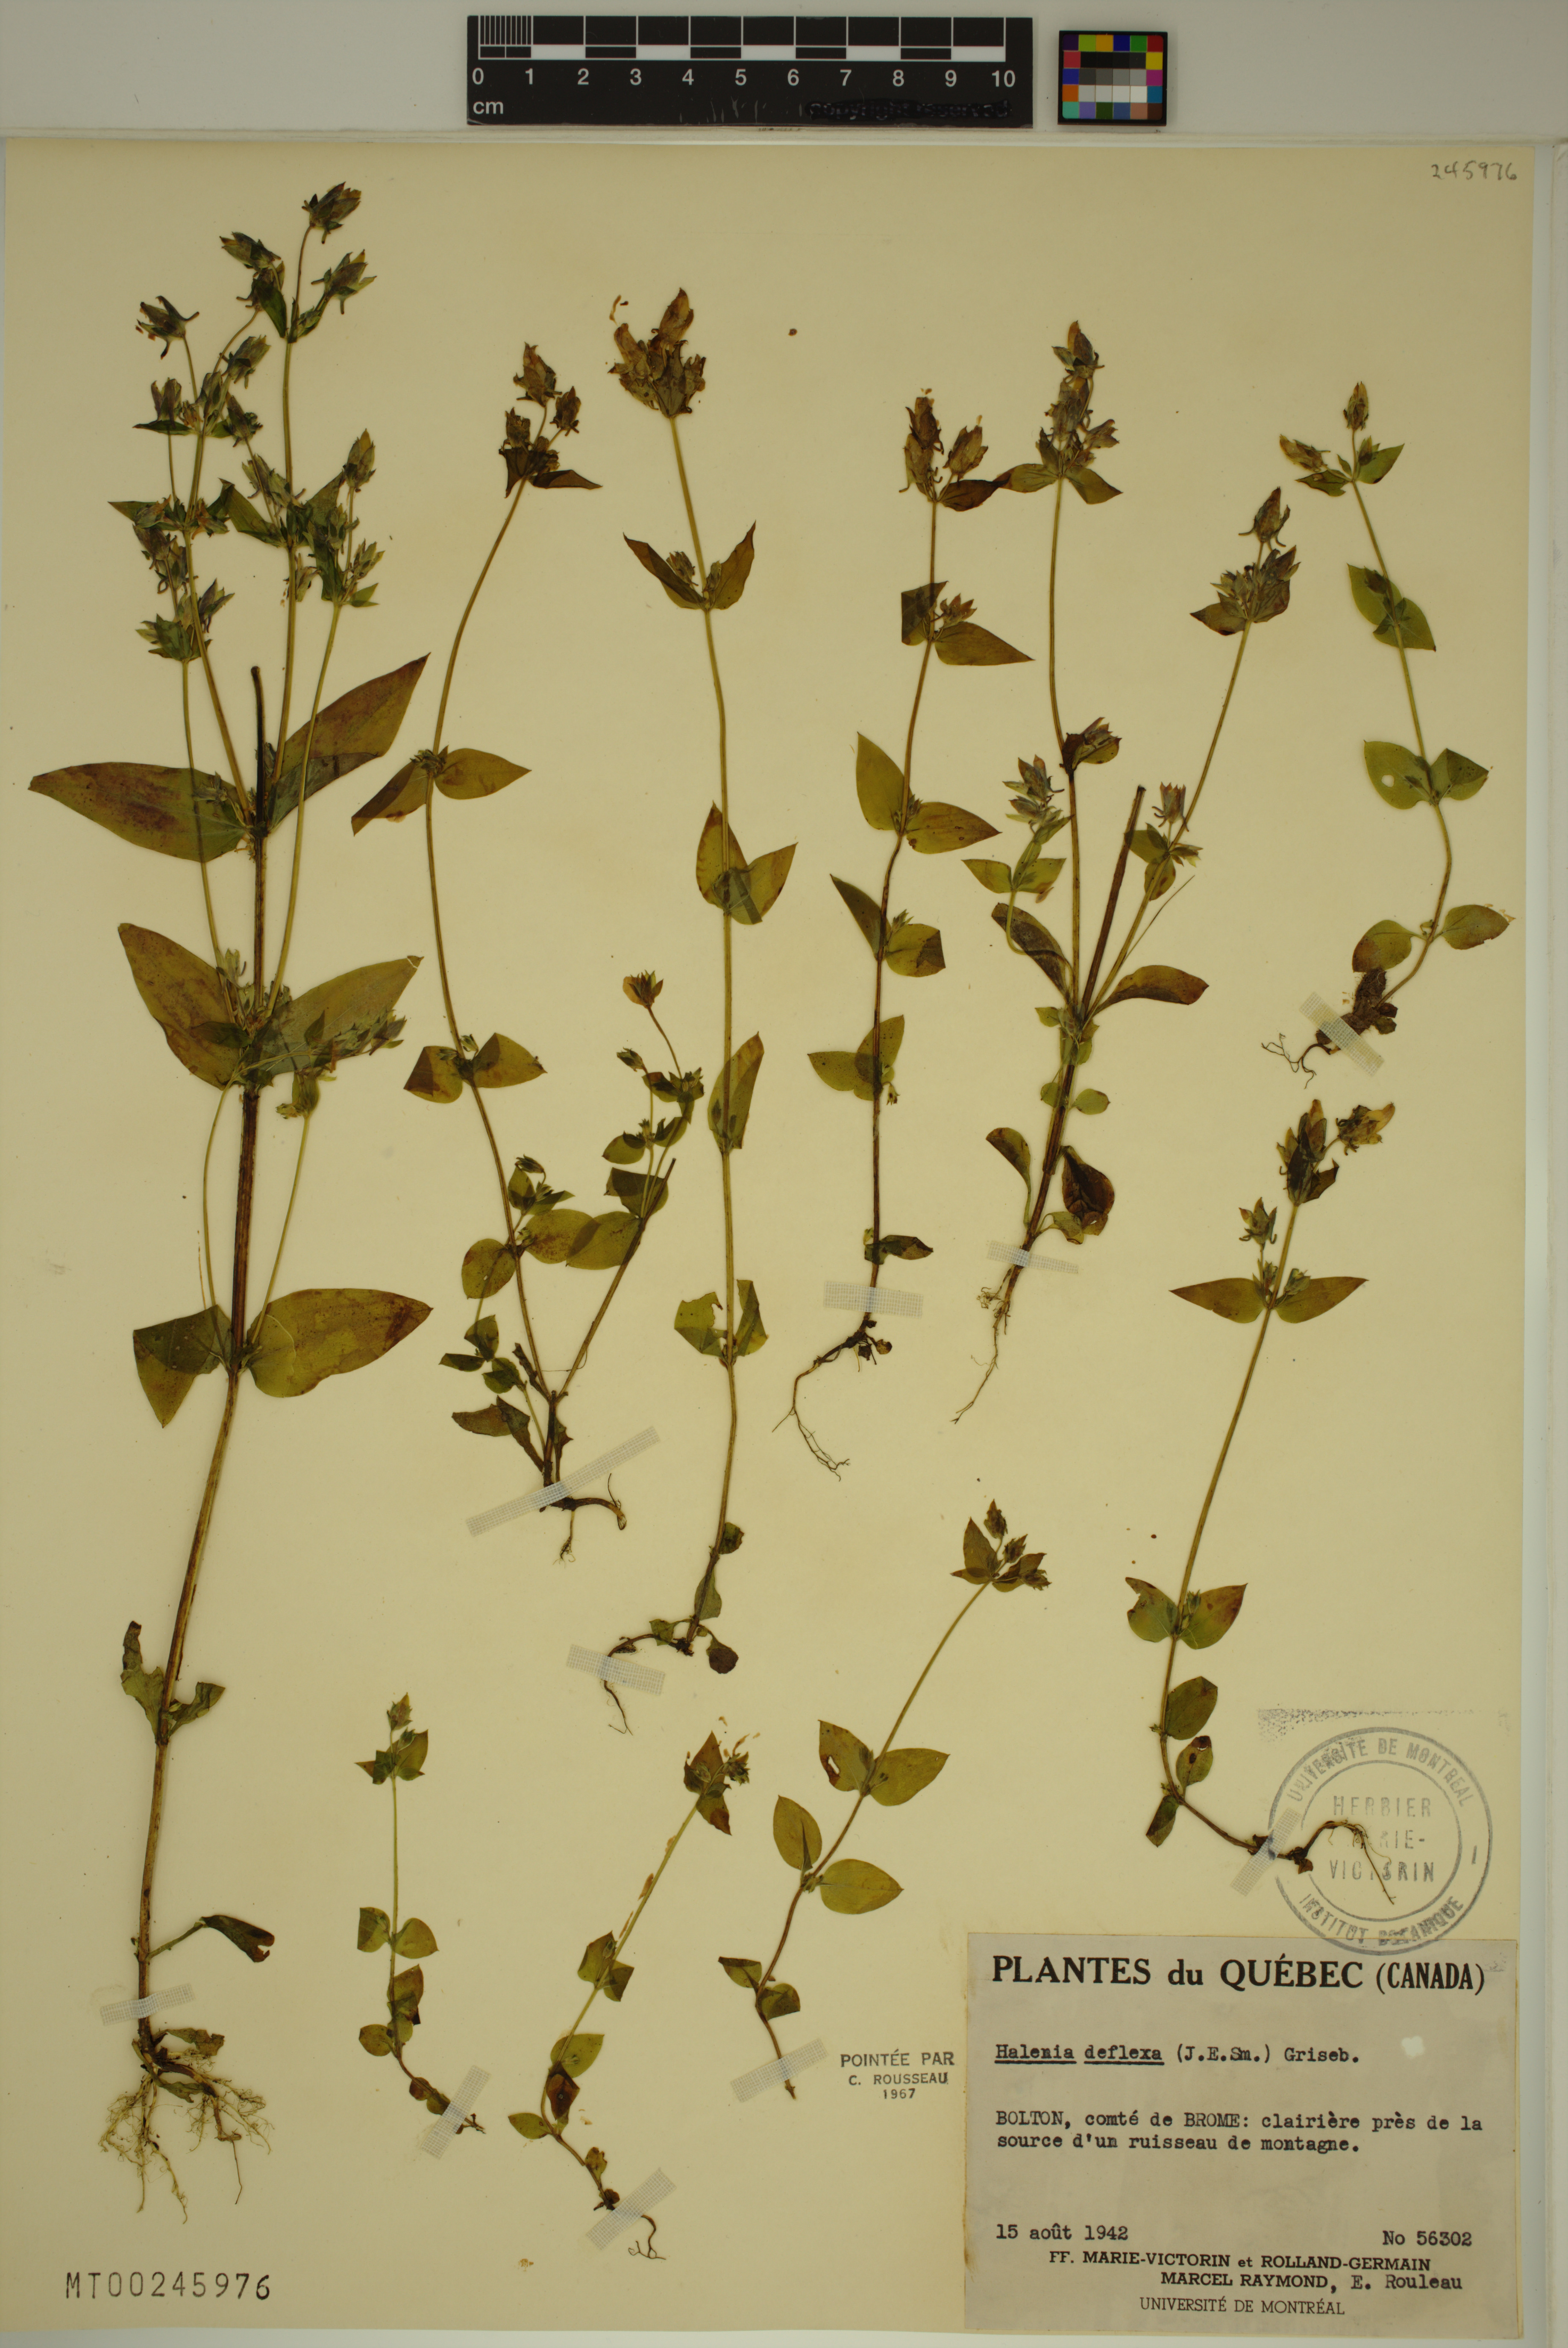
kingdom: Plantae
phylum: Tracheophyta
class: Magnoliopsida
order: Gentianales
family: Gentianaceae
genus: Halenia
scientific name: Halenia deflexa
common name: American spurred gentian
